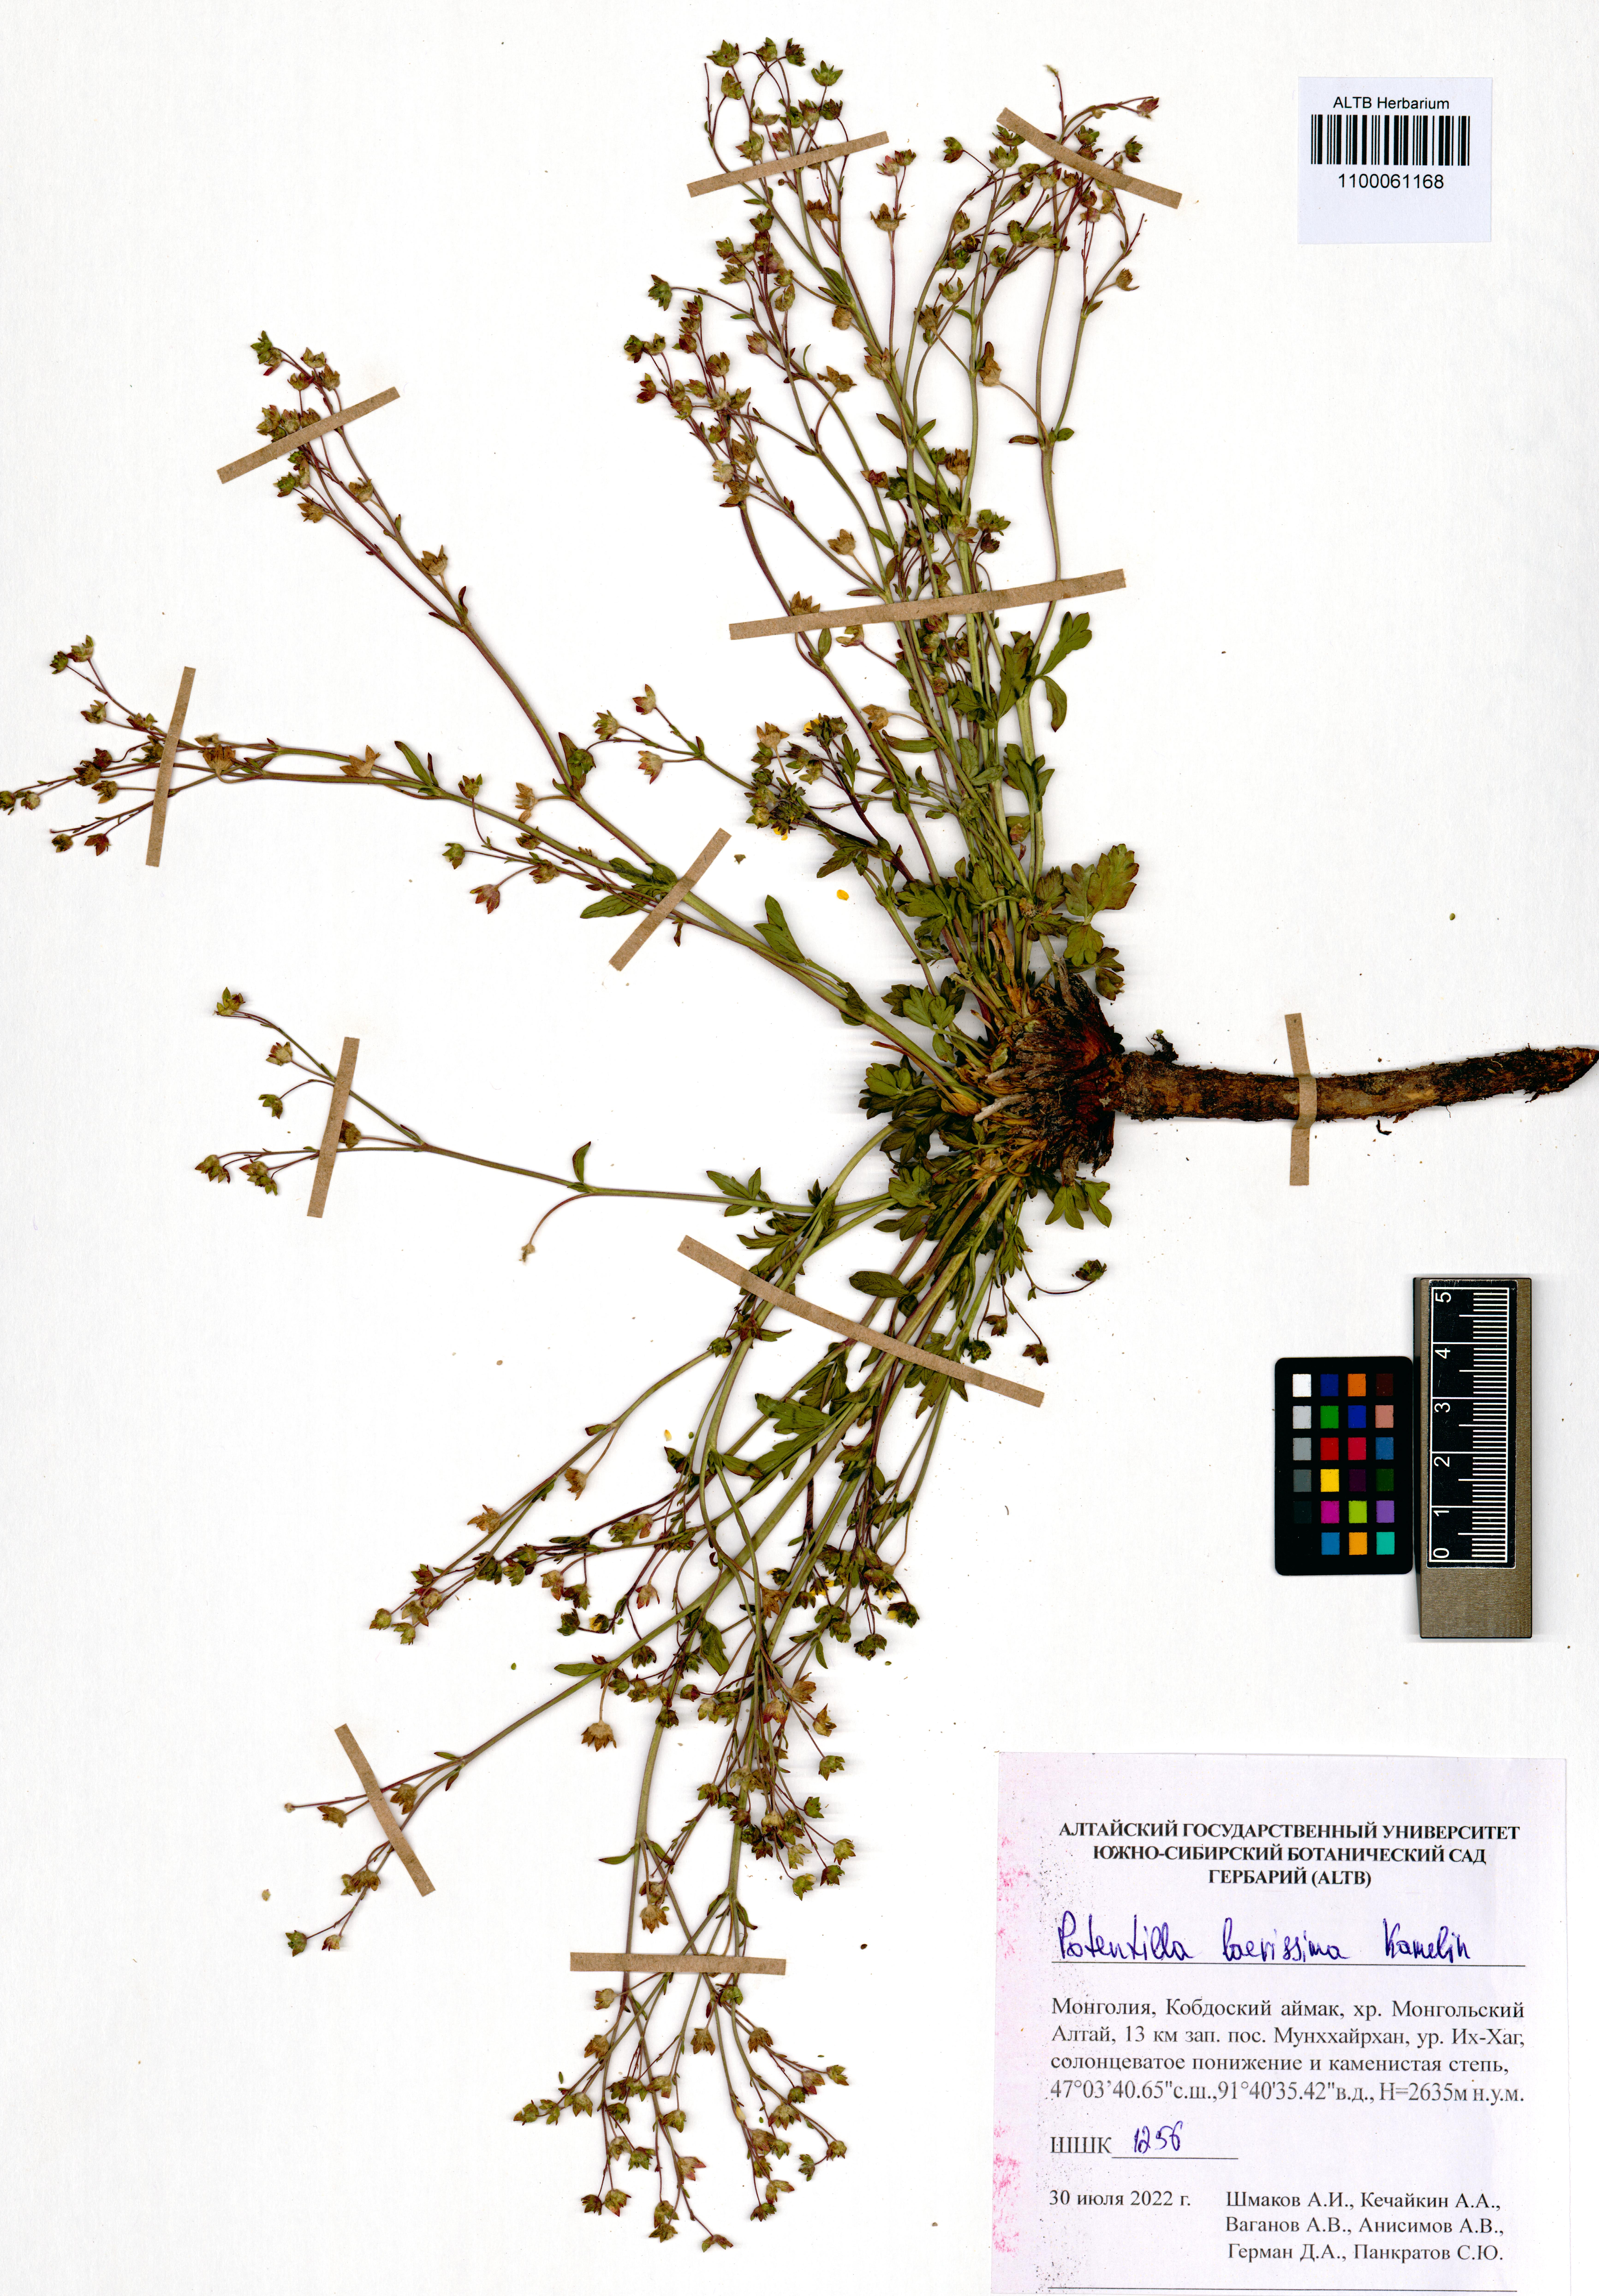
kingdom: Plantae
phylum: Tracheophyta
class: Magnoliopsida
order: Rosales
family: Rosaceae
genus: Potentilla
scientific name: Potentilla laevissima
